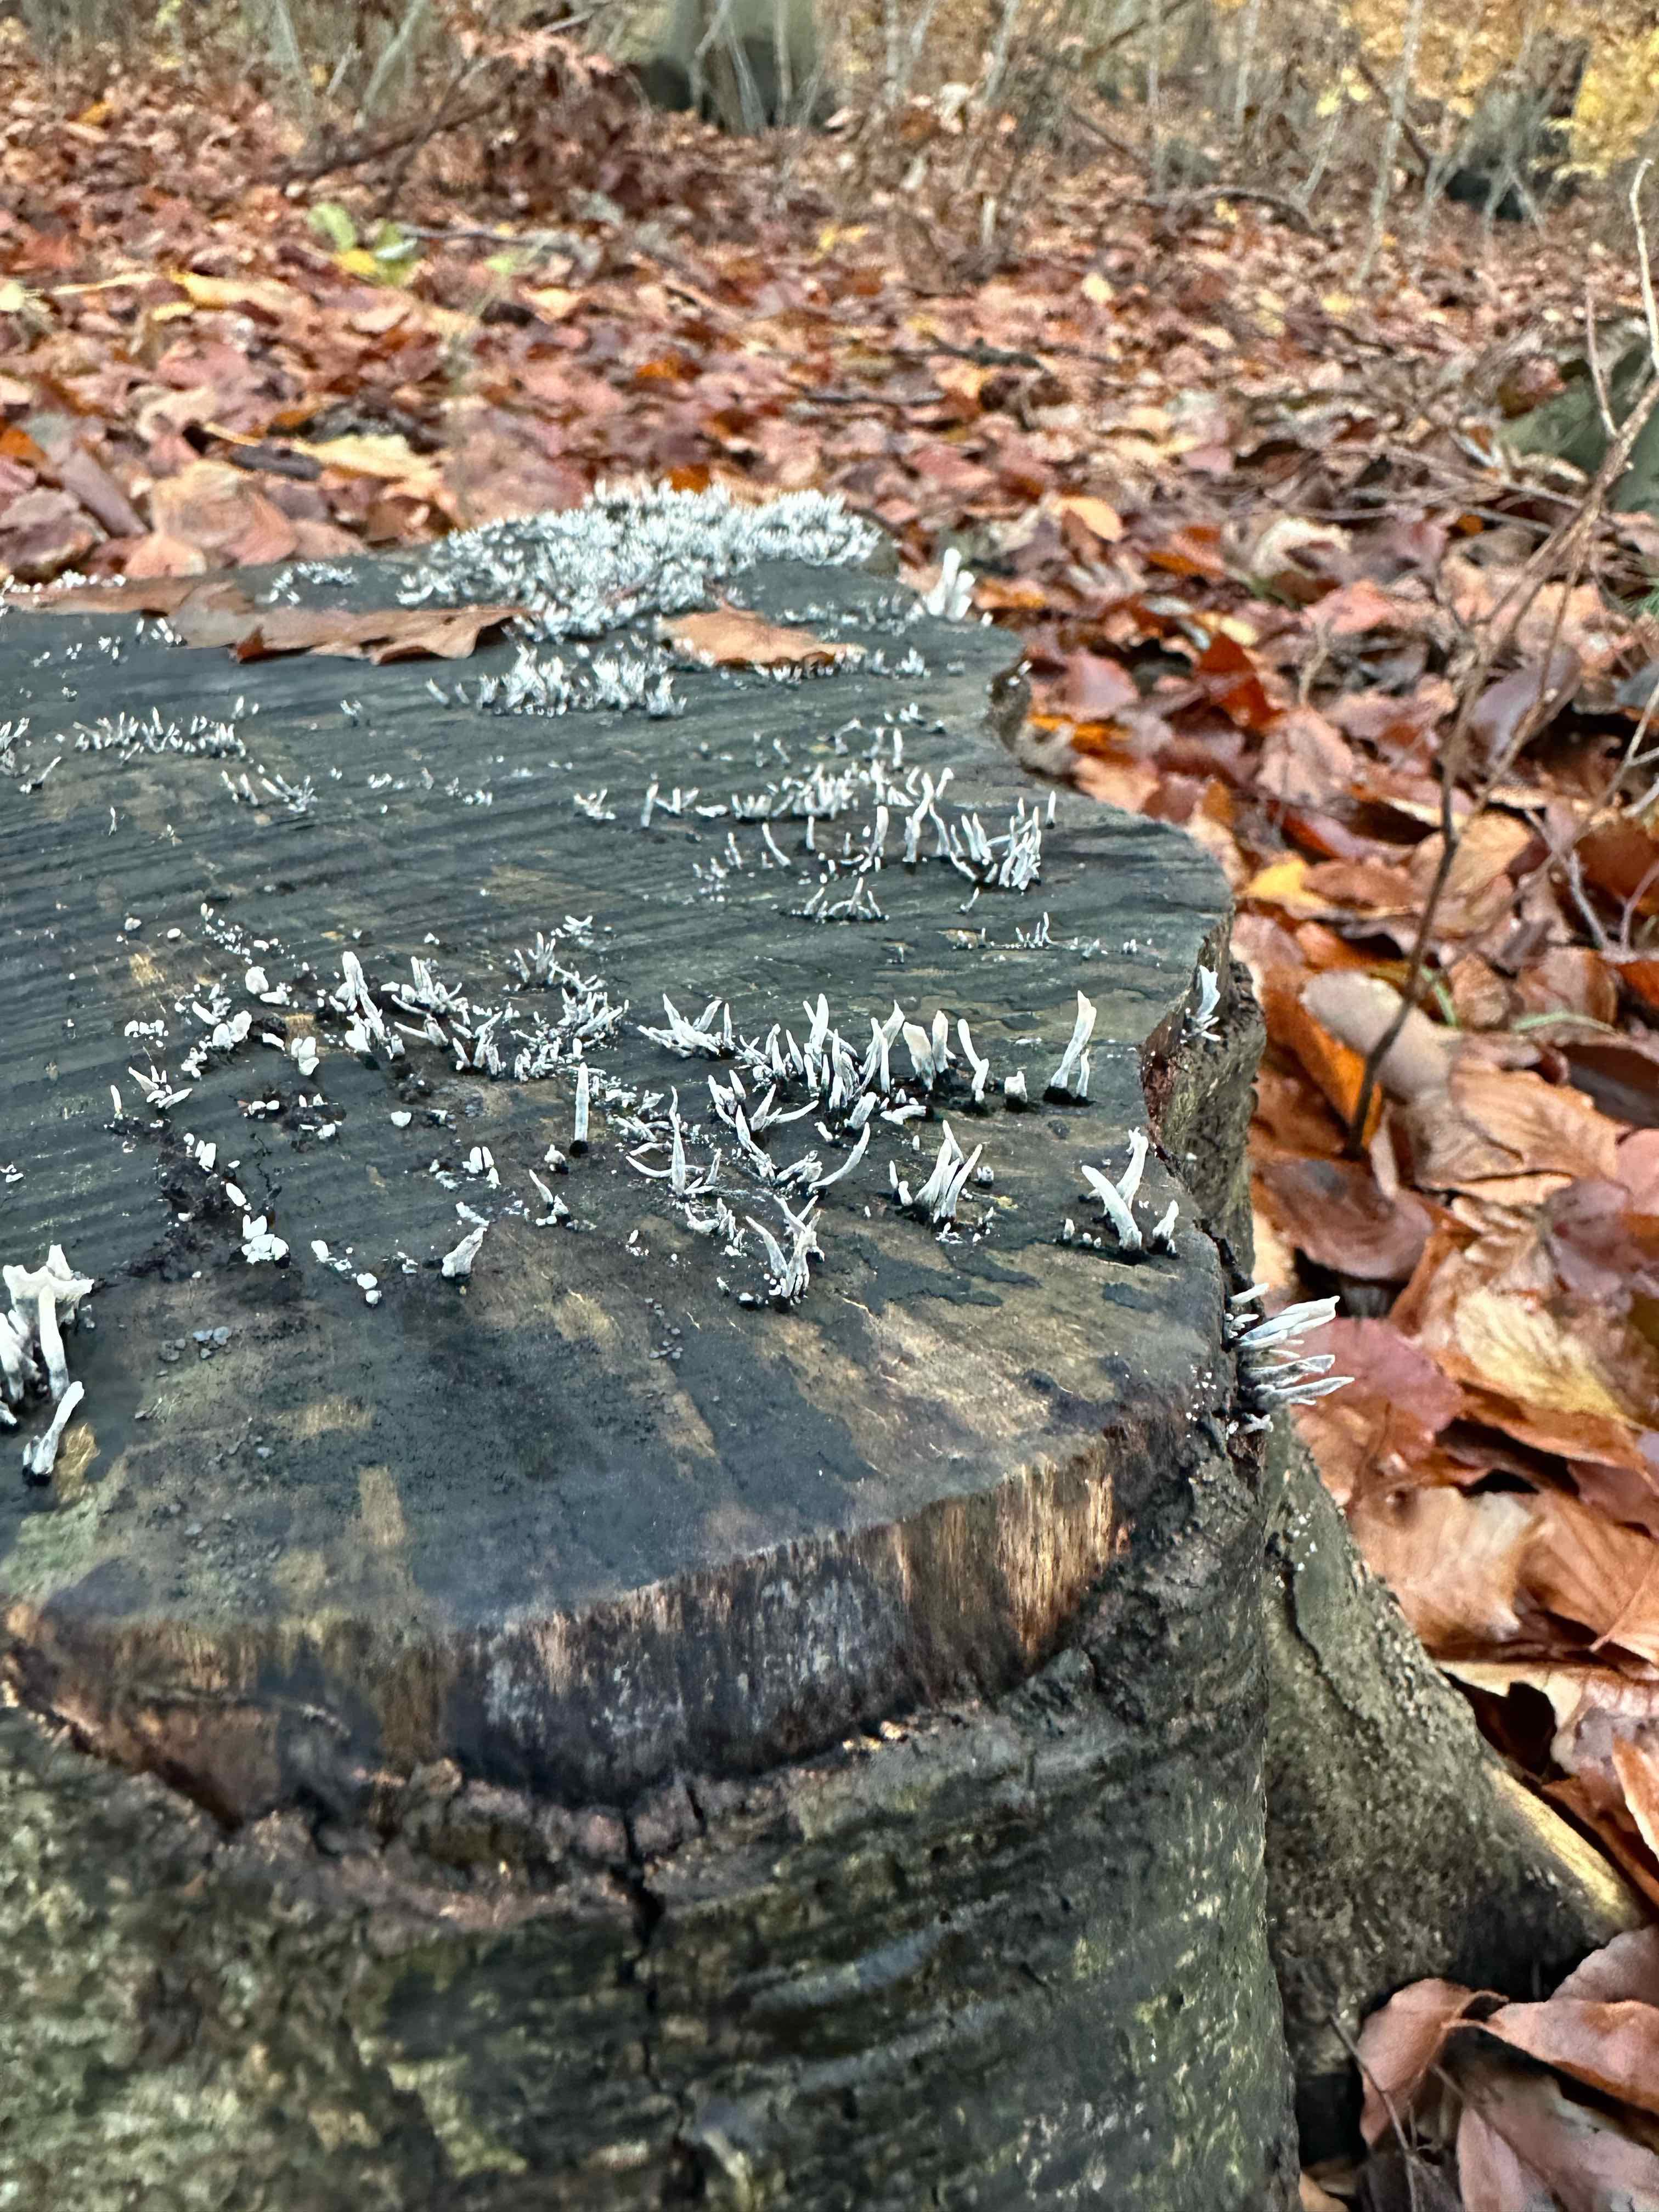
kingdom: Fungi
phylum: Ascomycota
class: Sordariomycetes
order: Xylariales
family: Xylariaceae
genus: Xylaria
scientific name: Xylaria hypoxylon
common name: grenet stødsvamp
